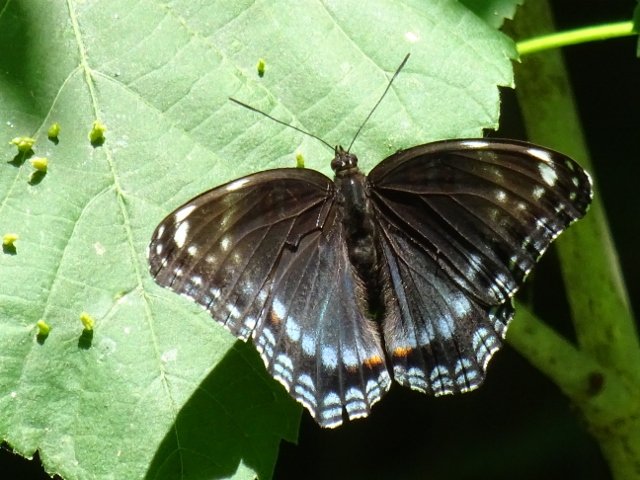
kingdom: Animalia
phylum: Arthropoda
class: Insecta
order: Lepidoptera
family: Nymphalidae
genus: Limenitis
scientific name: Limenitis astyanax
